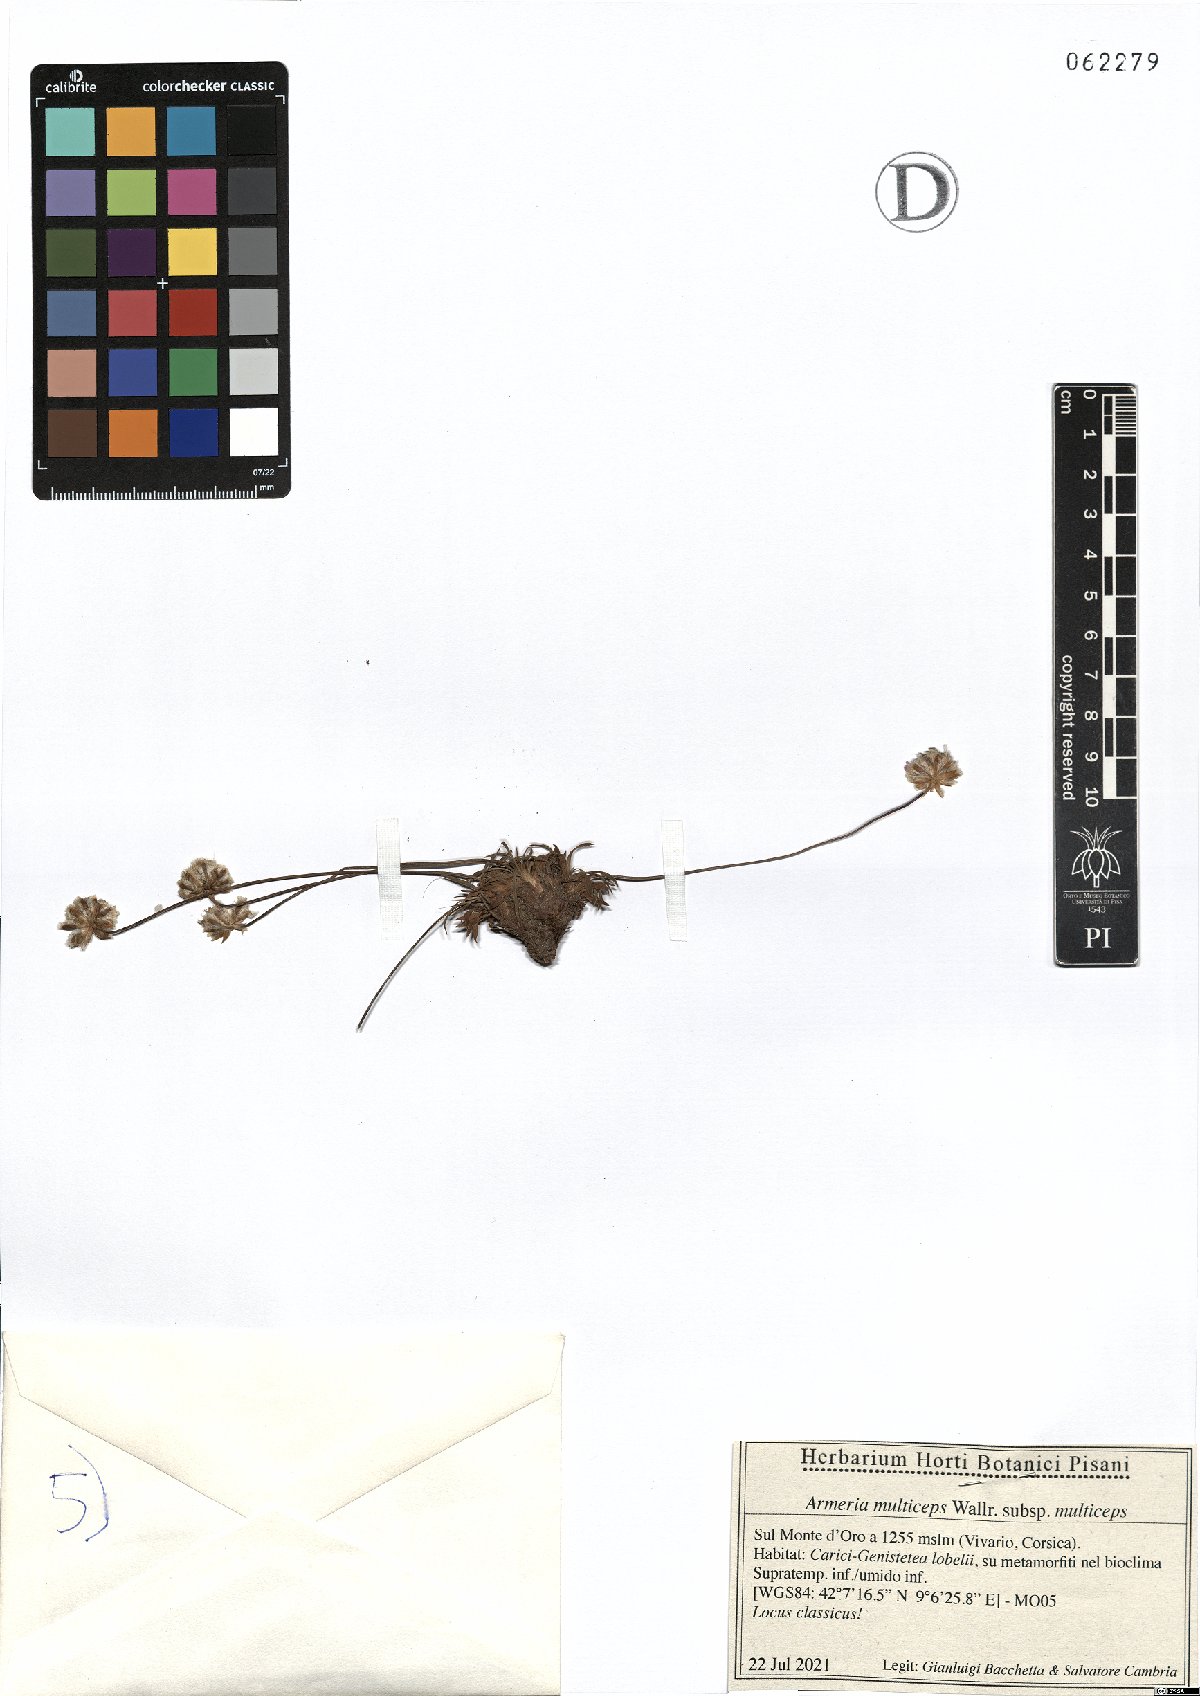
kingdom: Plantae
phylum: Tracheophyta
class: Magnoliopsida
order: Caryophyllales
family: Plumbaginaceae
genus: Armeria
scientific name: Armeria multiceps
